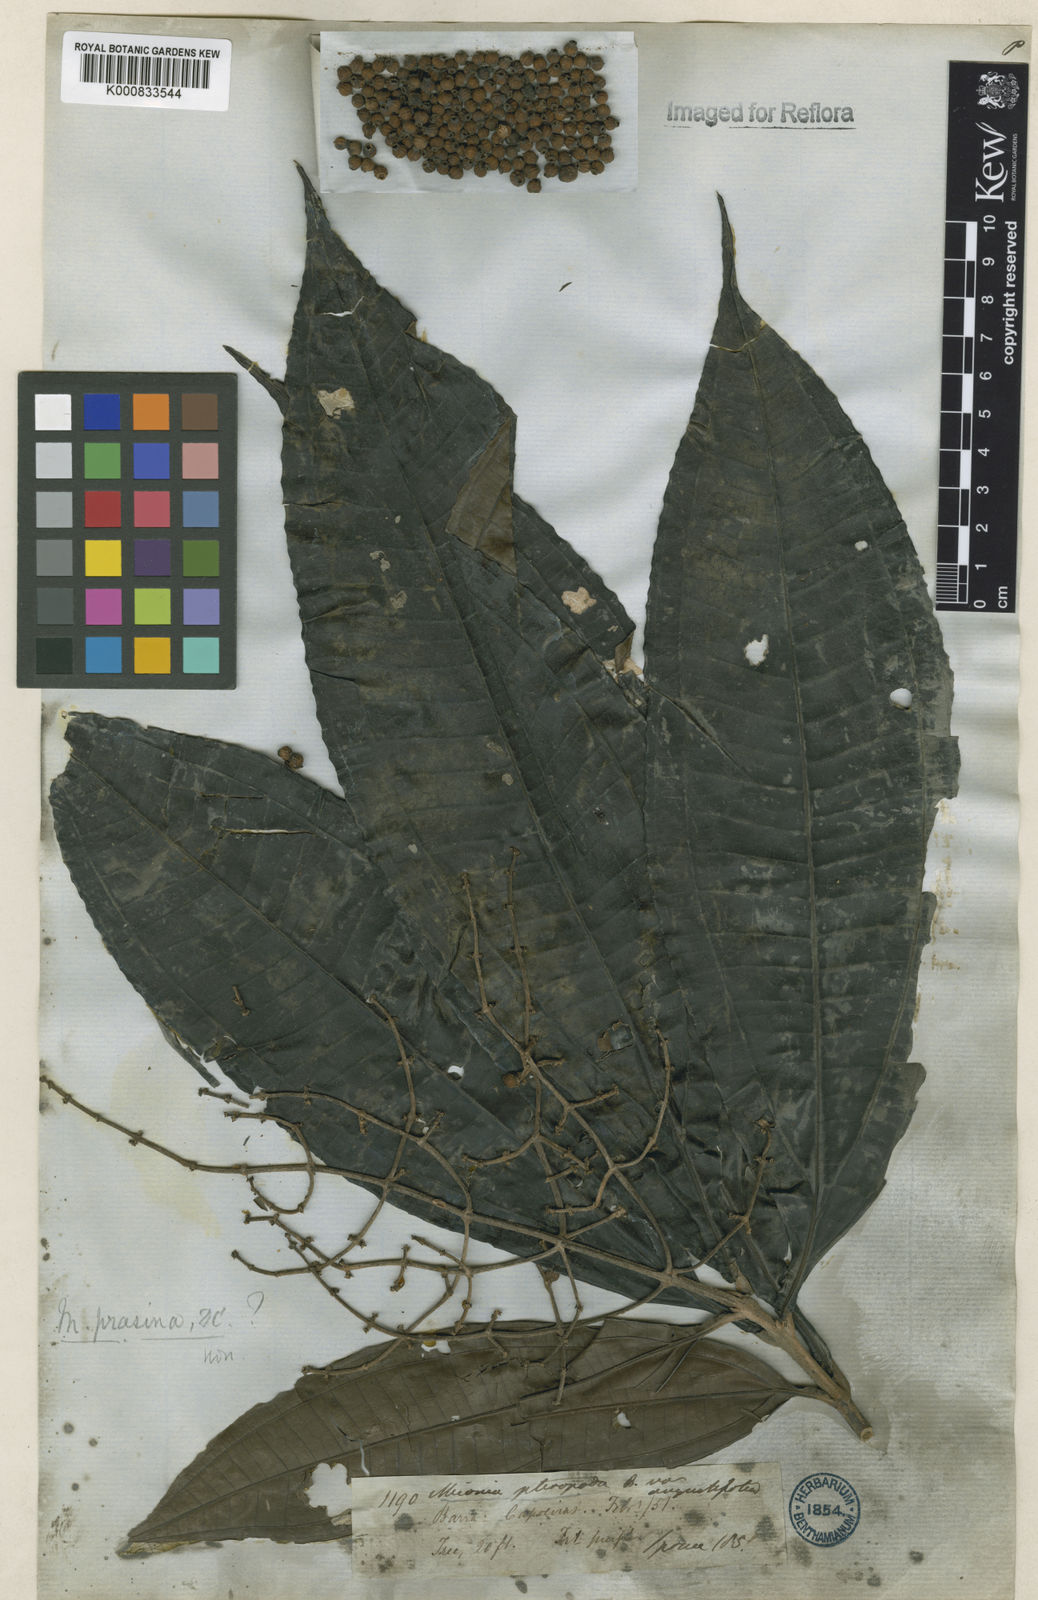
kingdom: Plantae
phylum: Tracheophyta
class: Magnoliopsida
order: Myrtales
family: Melastomataceae
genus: Miconia
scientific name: Miconia prasina
